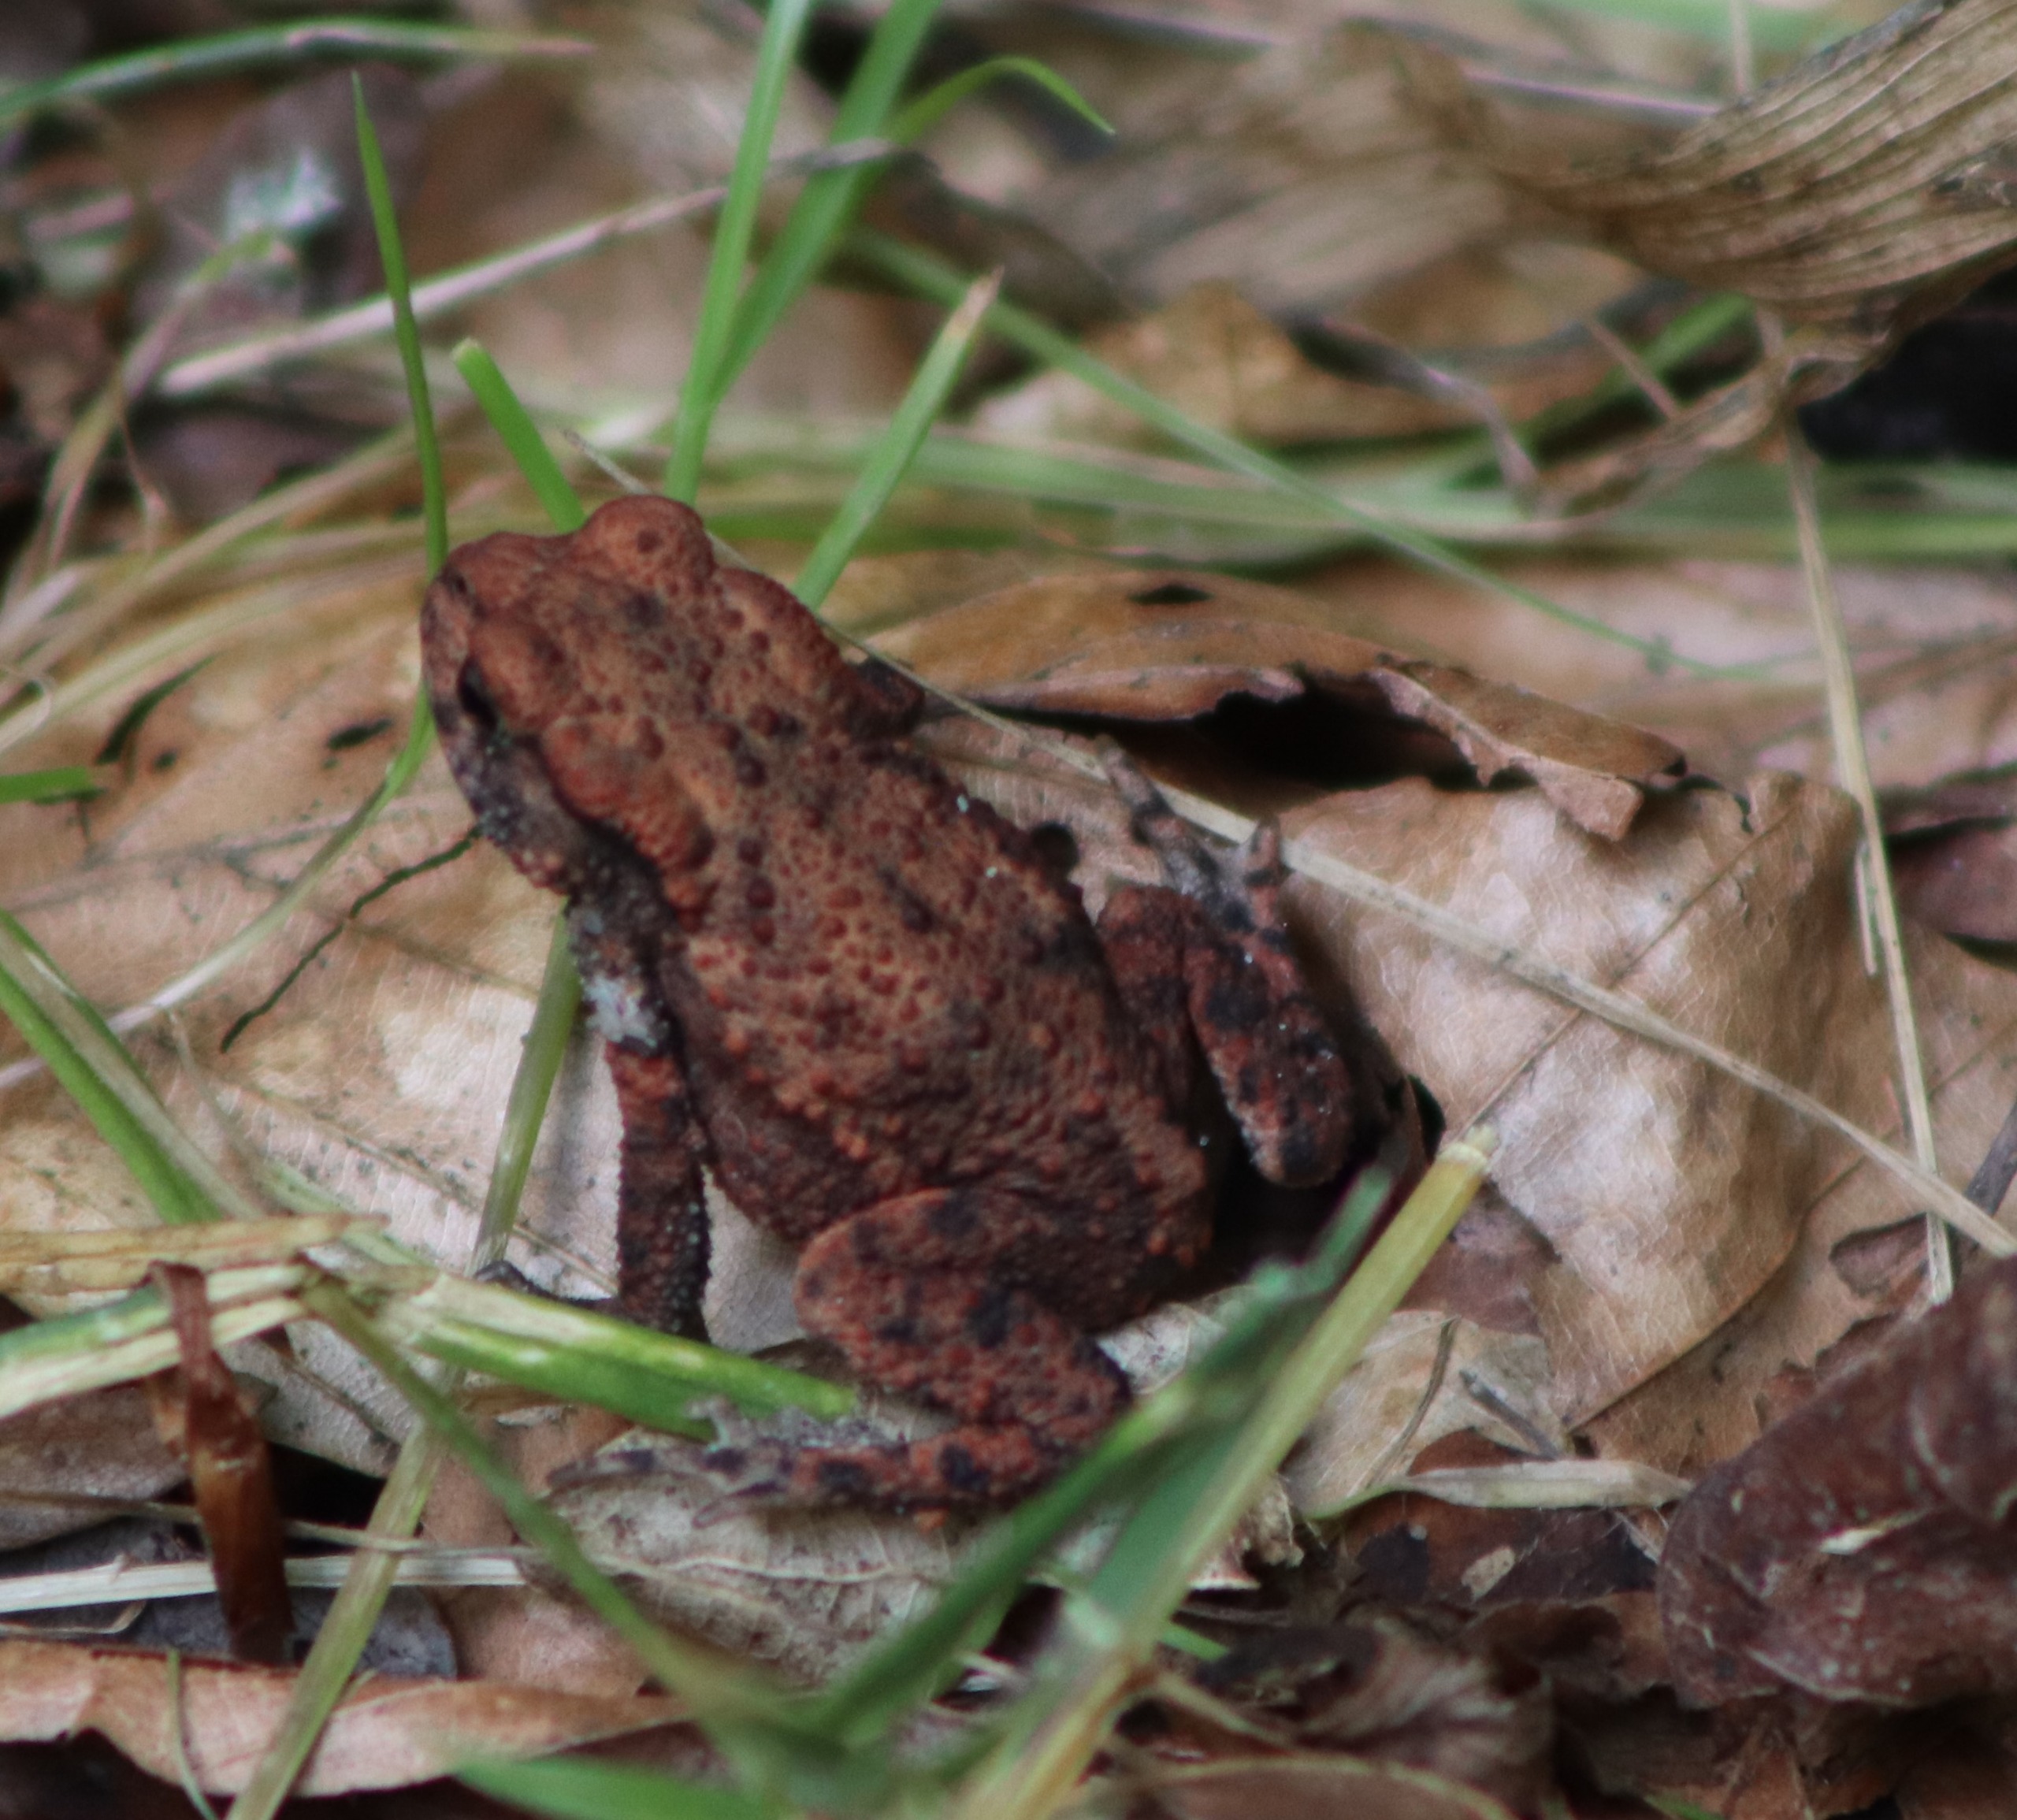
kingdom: Animalia
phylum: Chordata
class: Amphibia
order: Anura
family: Bufonidae
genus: Bufo
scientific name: Bufo bufo
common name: Skrubtudse
